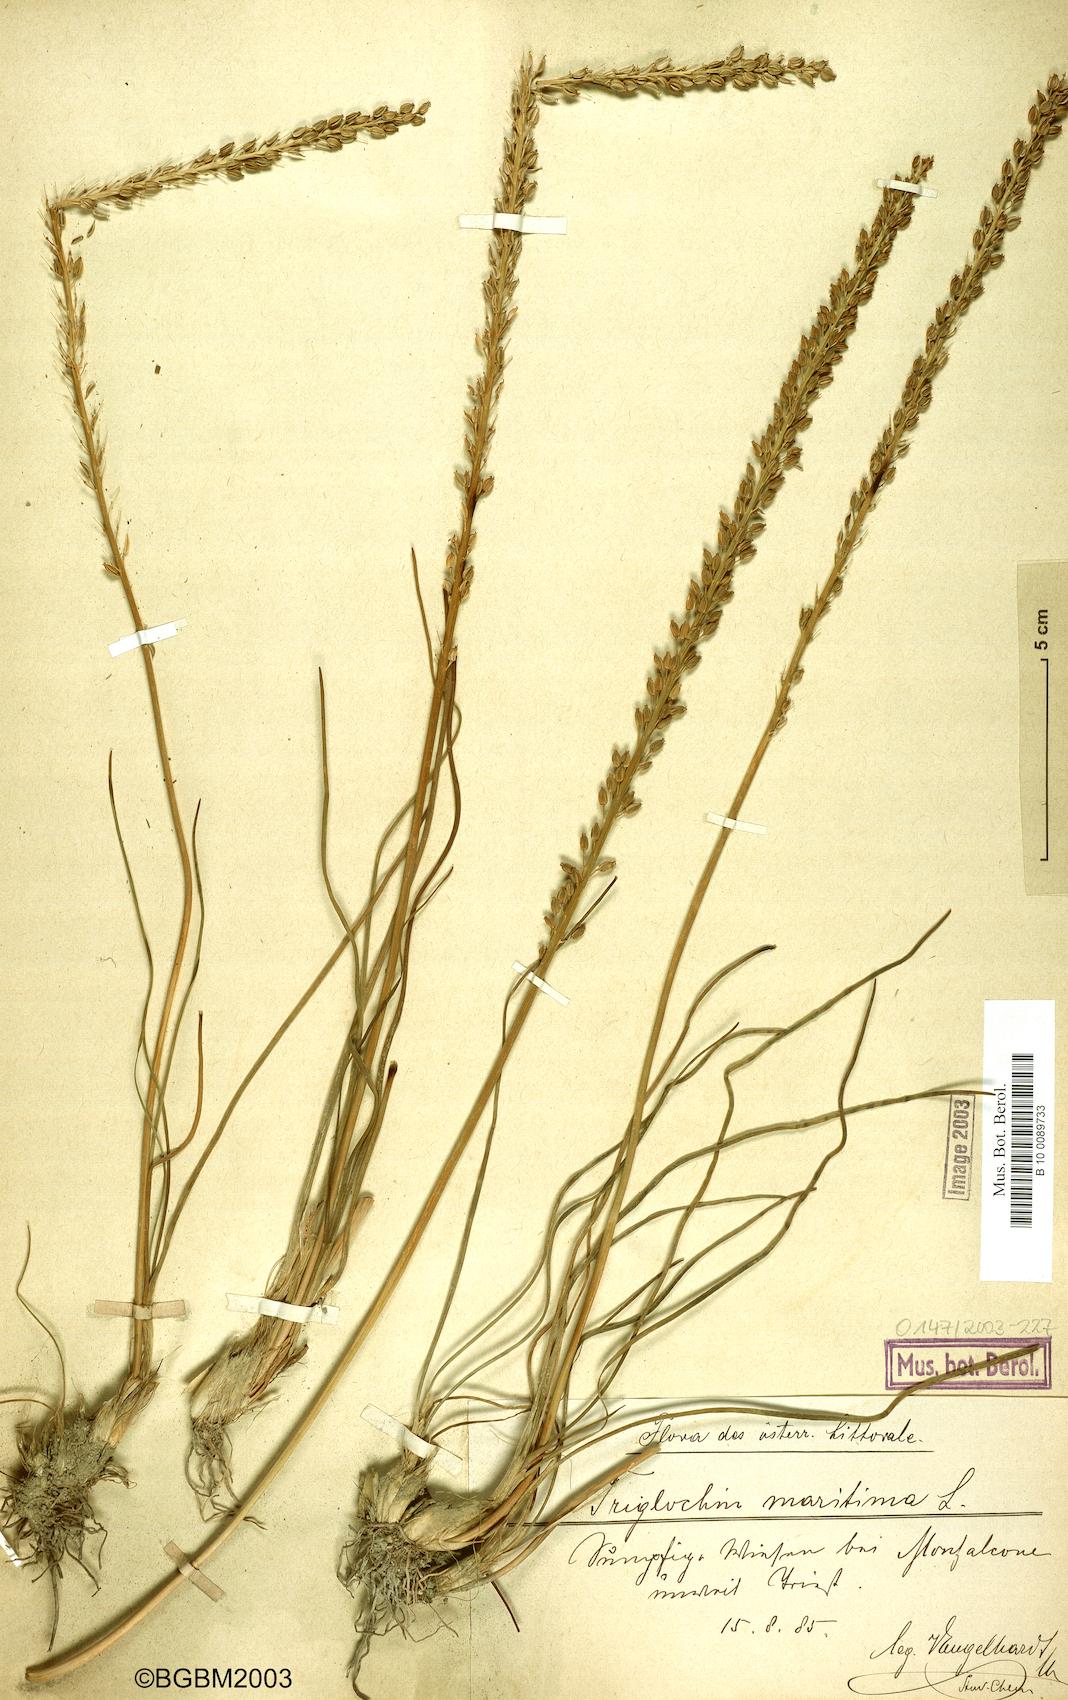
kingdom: Plantae
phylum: Tracheophyta
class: Liliopsida
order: Alismatales
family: Juncaginaceae
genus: Triglochin
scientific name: Triglochin maritima
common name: Sea arrowgrass
